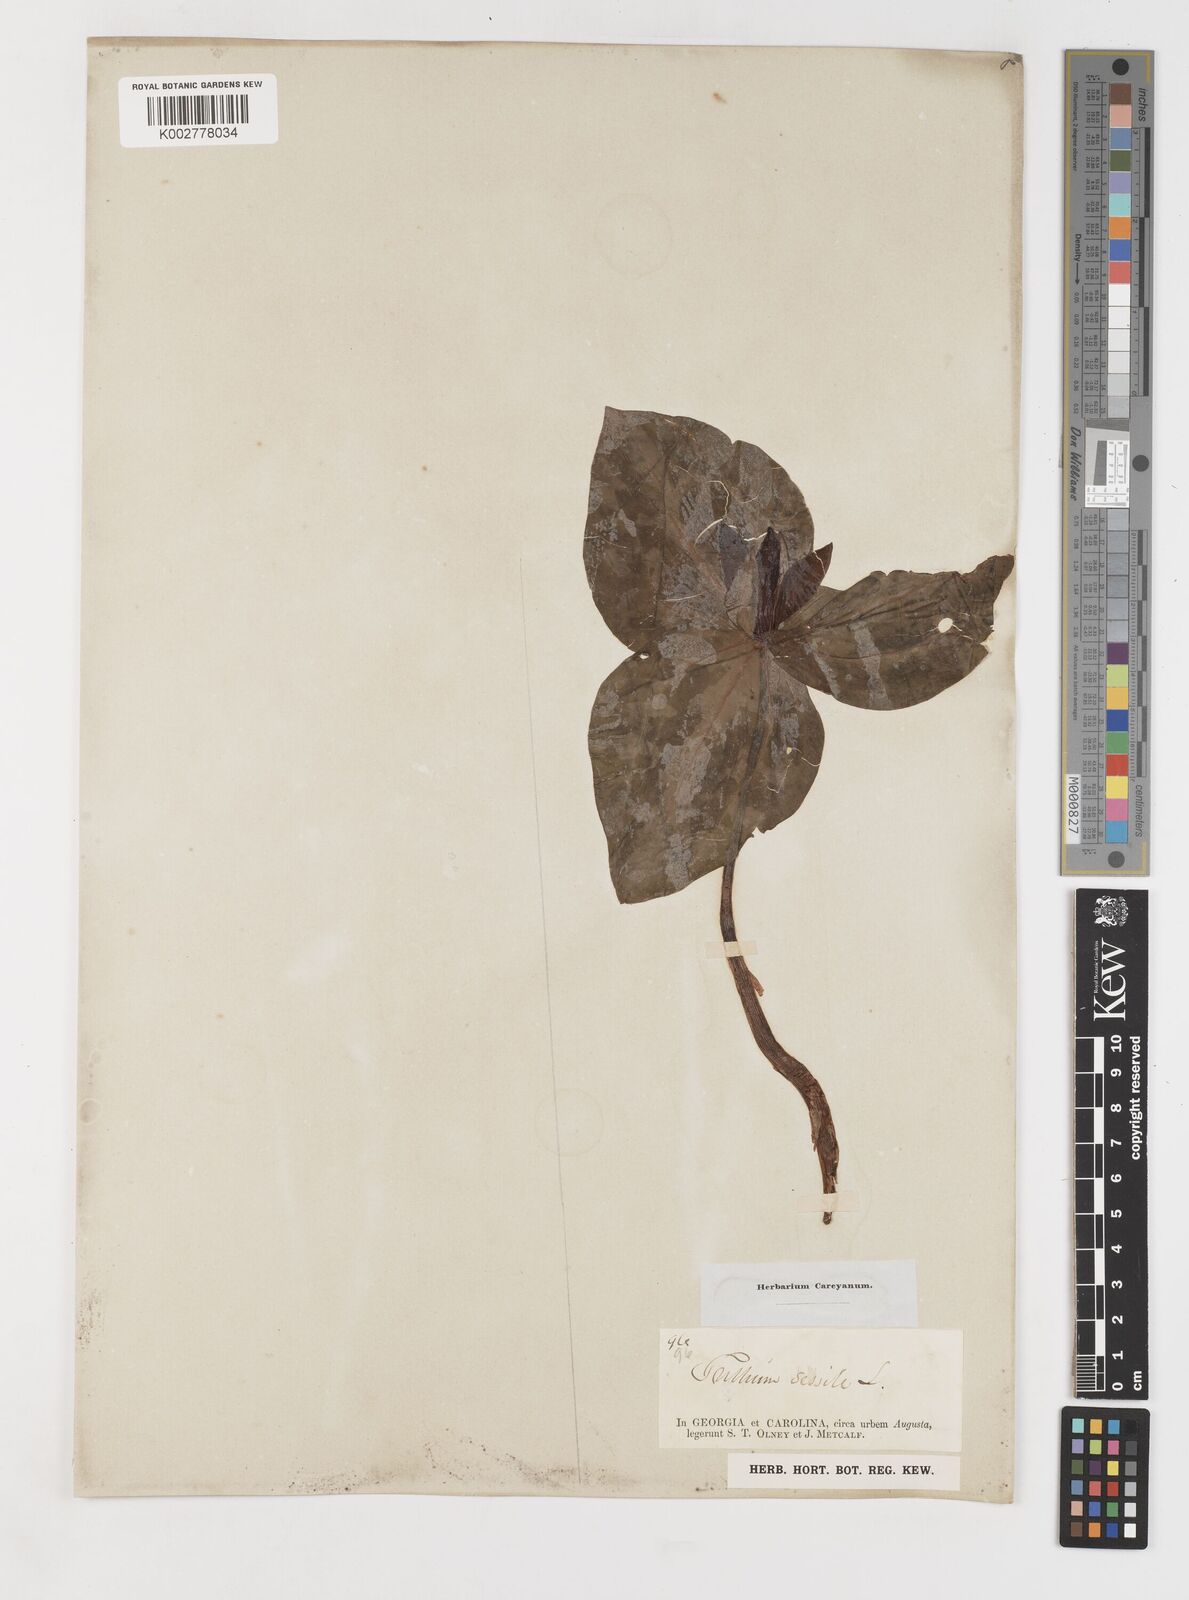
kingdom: Plantae
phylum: Tracheophyta
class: Liliopsida
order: Liliales
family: Melanthiaceae
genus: Trillium
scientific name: Trillium sessile
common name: Sessile trillium
